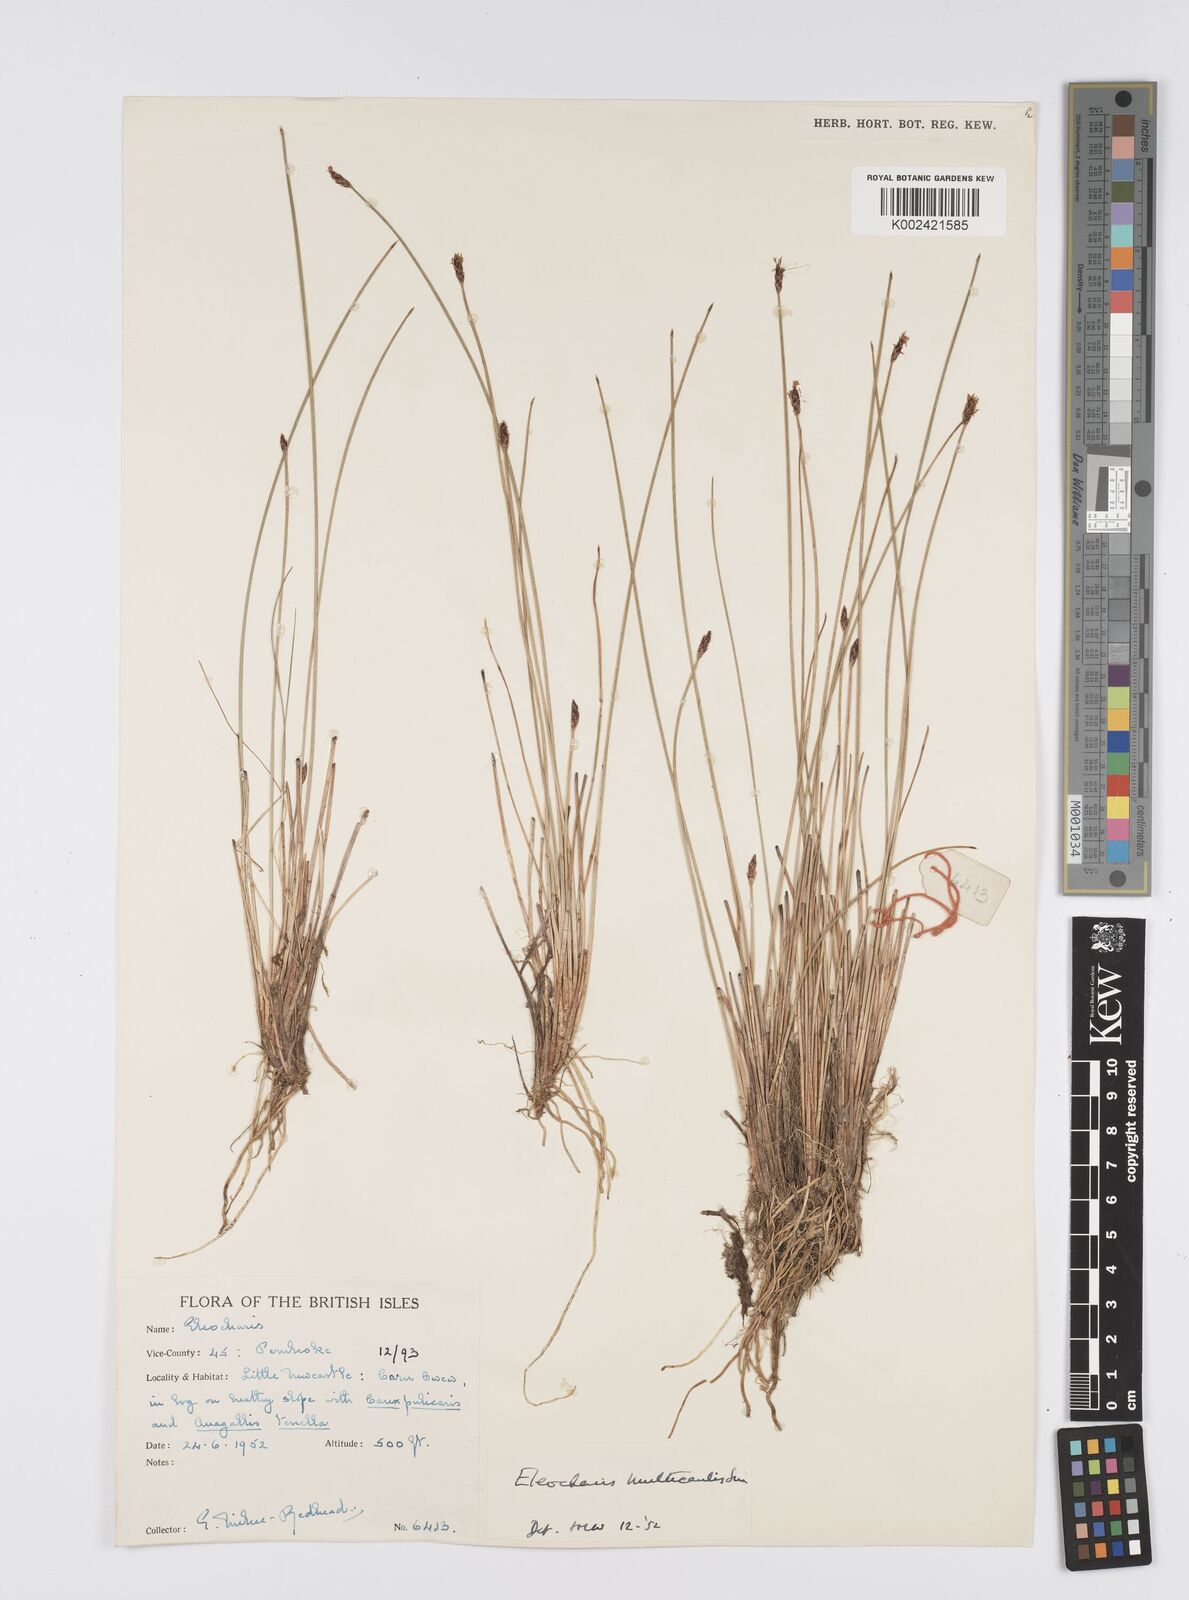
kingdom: Plantae
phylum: Tracheophyta
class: Liliopsida
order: Poales
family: Cyperaceae
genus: Eleocharis
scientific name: Eleocharis multicaulis
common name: Many-stalked spike-rush
